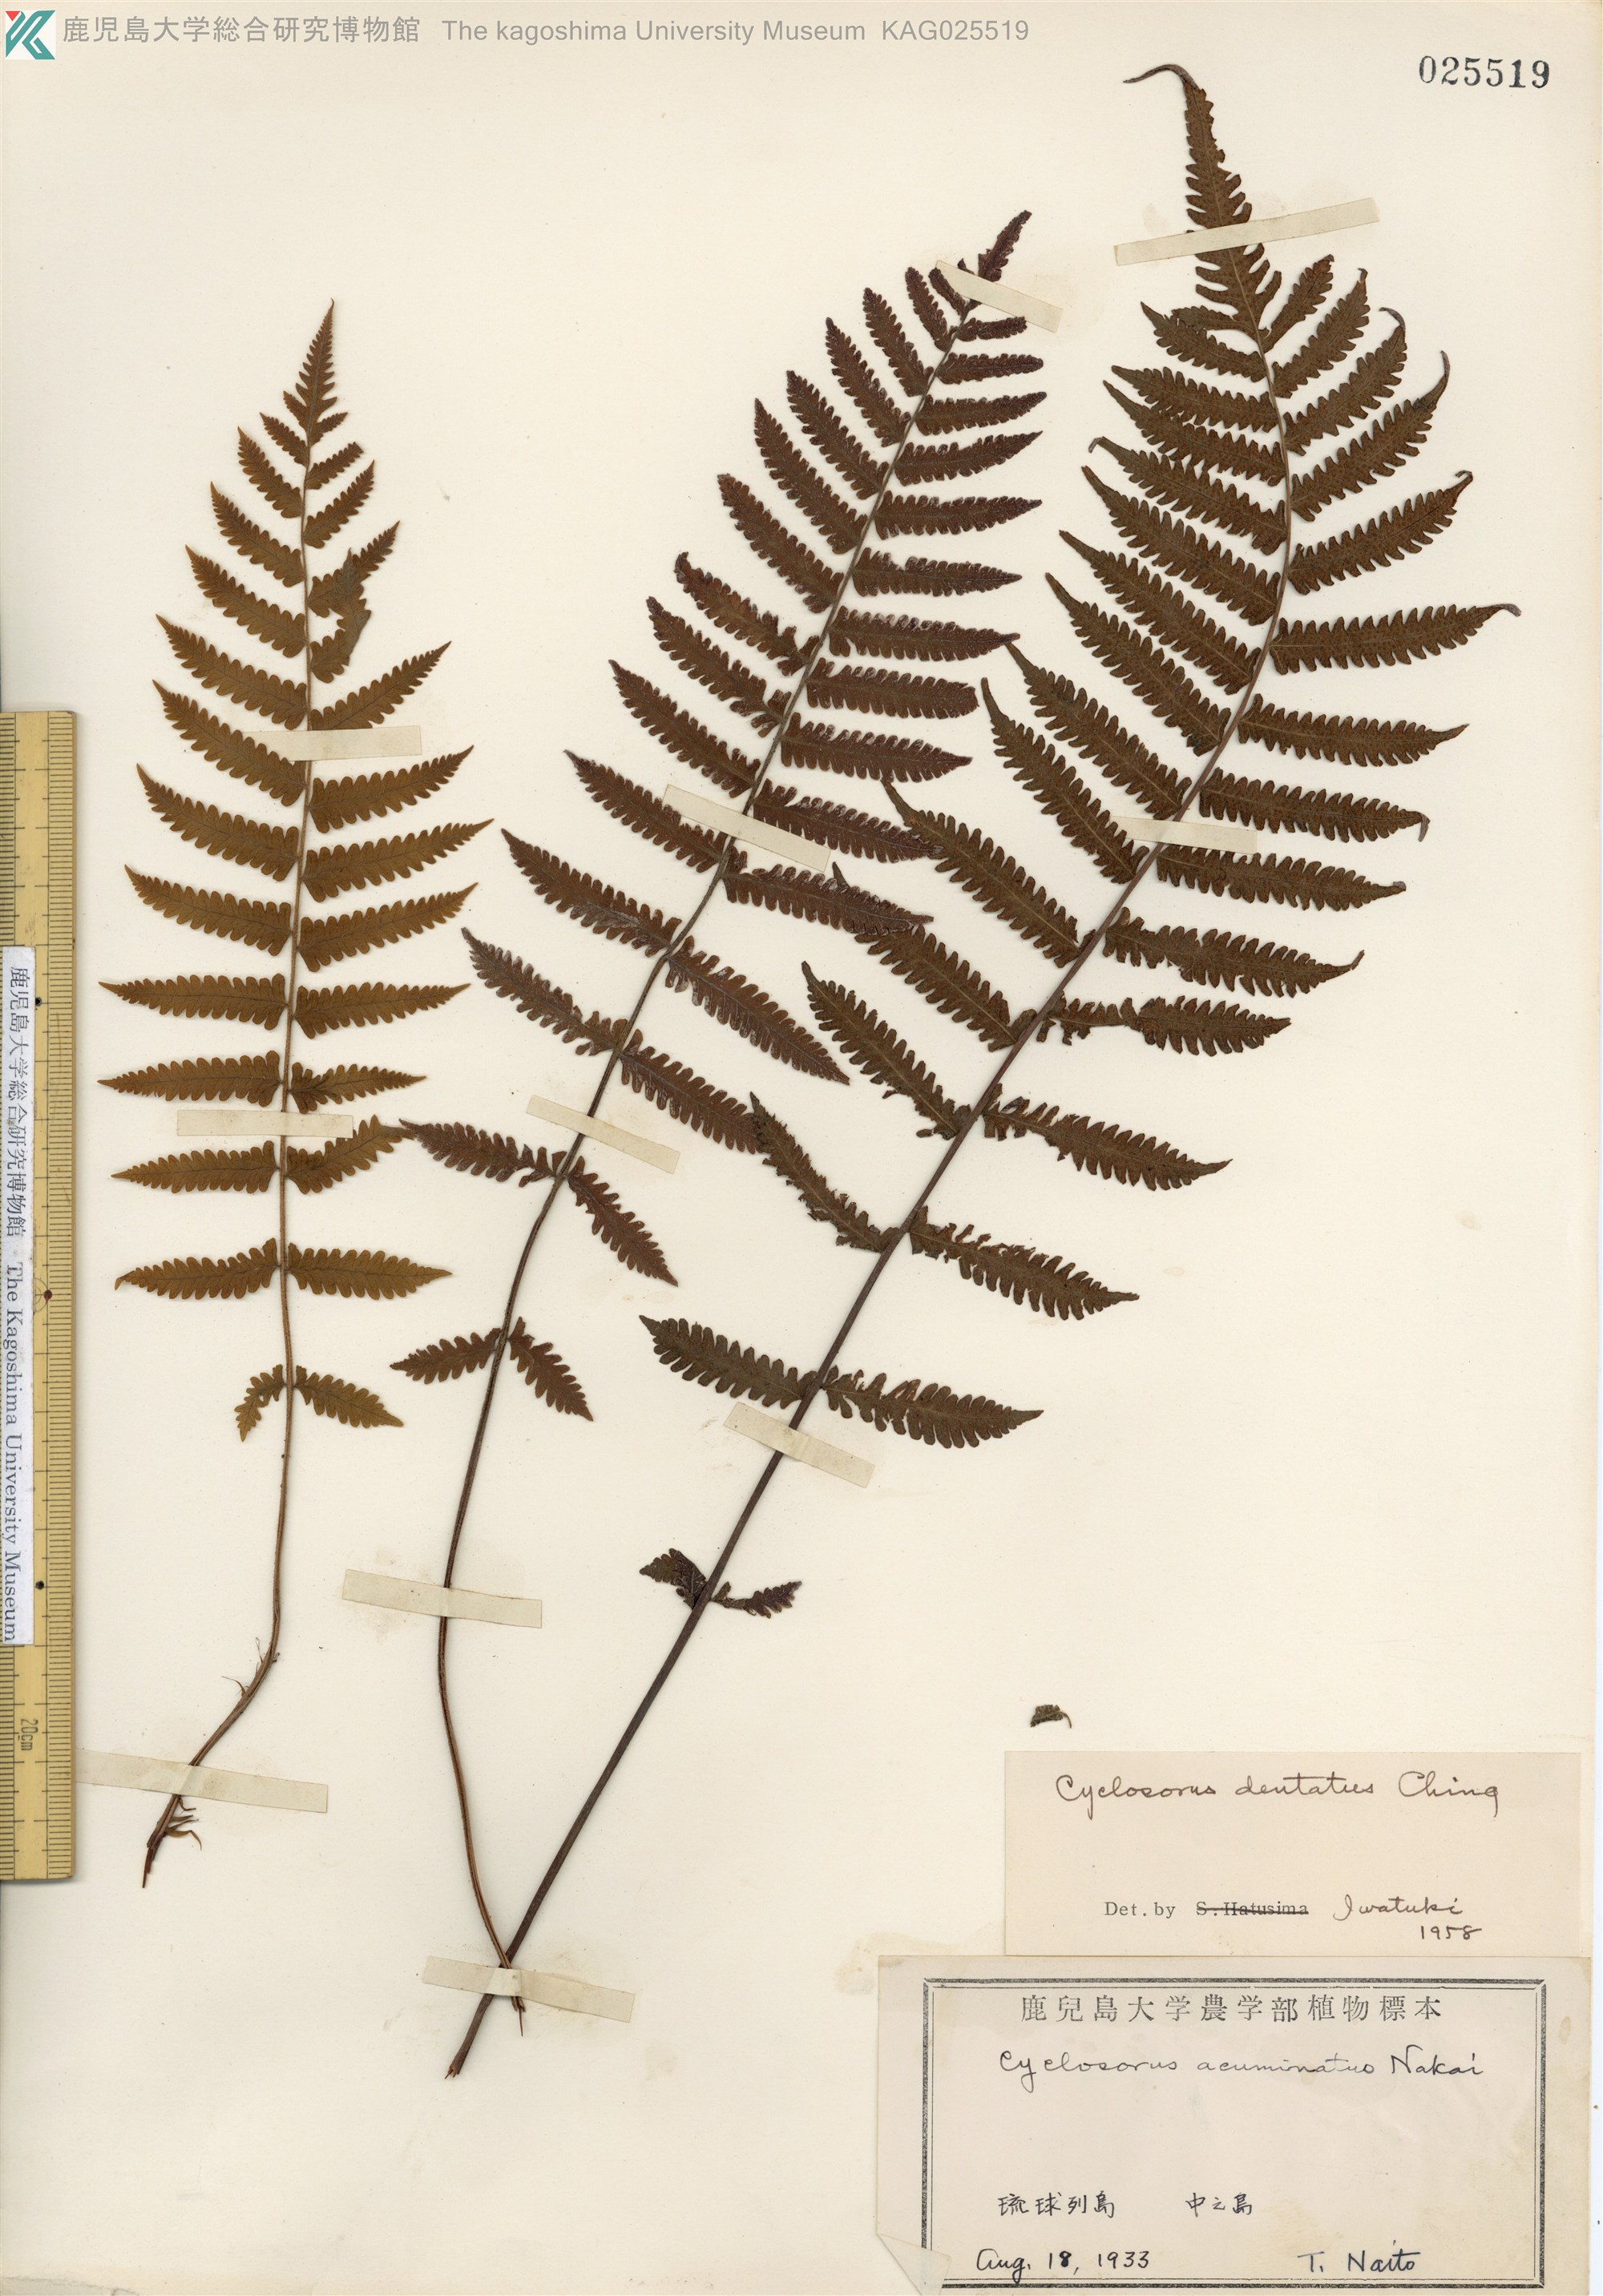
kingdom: Plantae
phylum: Tracheophyta
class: Polypodiopsida
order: Polypodiales
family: Thelypteridaceae
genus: Christella
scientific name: Christella dentata
